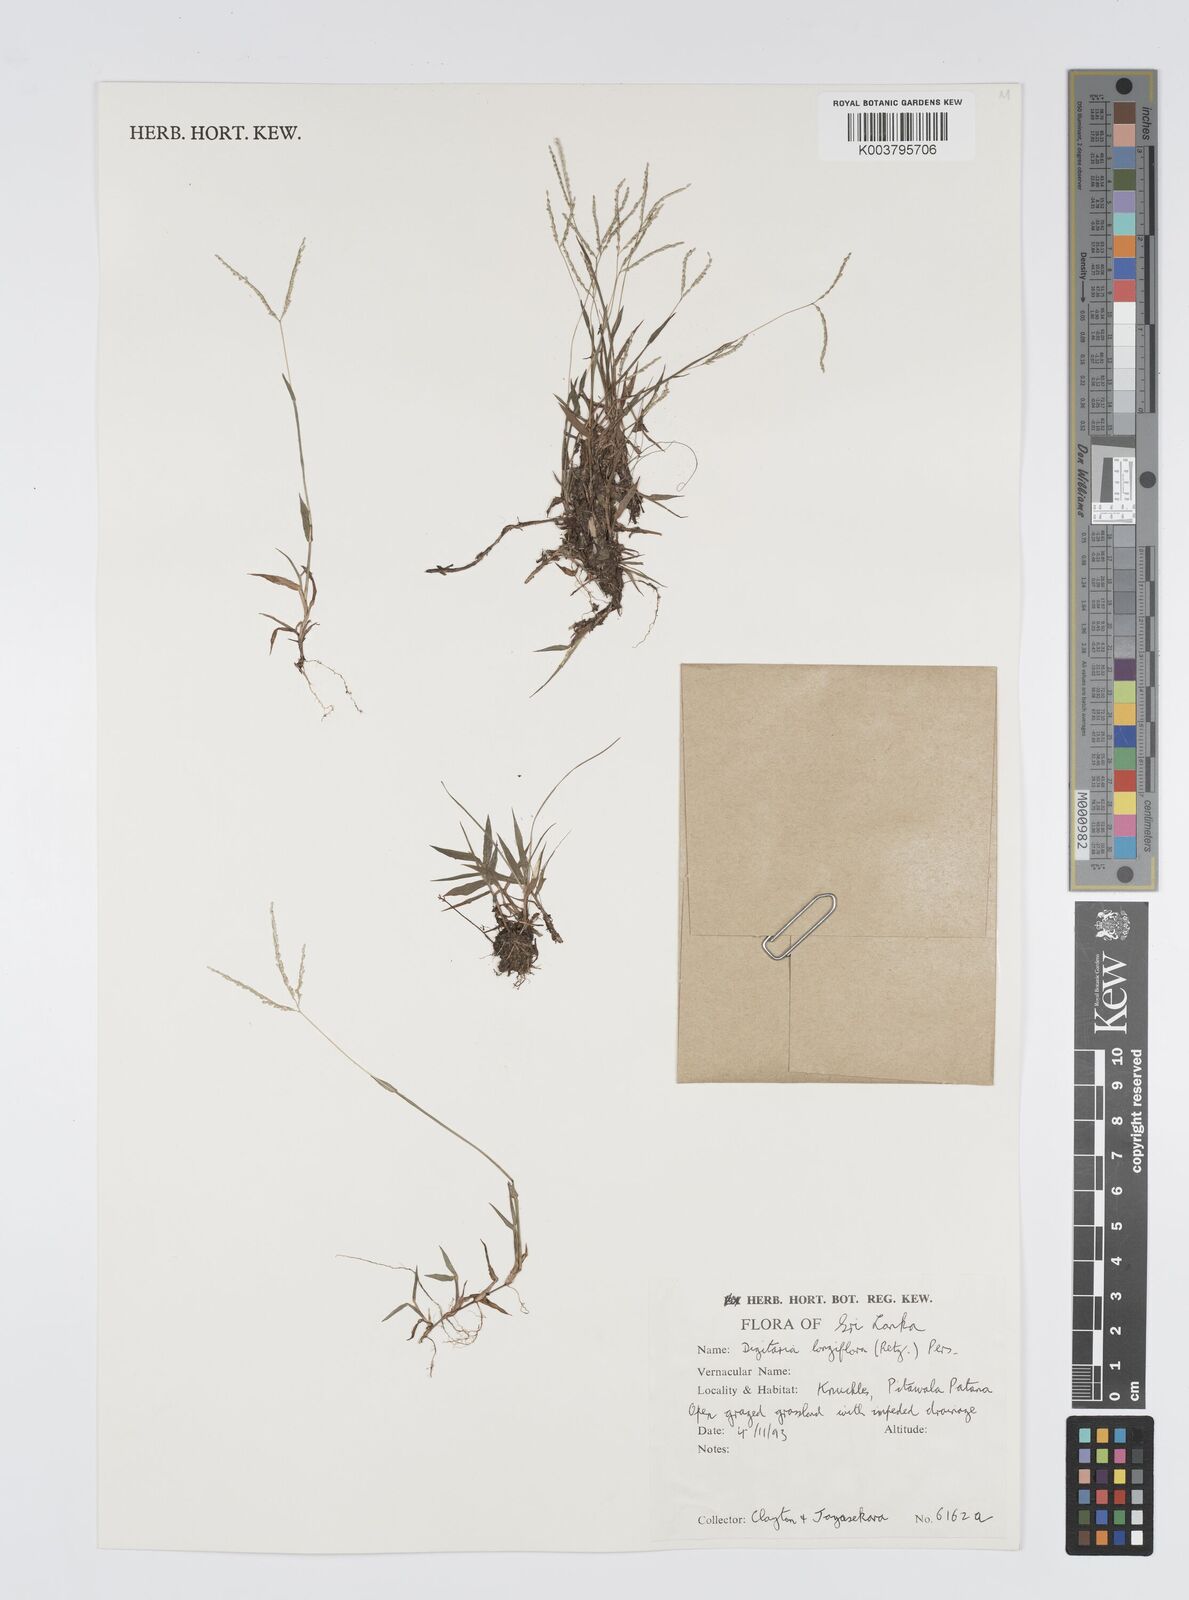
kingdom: Plantae
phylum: Tracheophyta
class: Liliopsida
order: Poales
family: Poaceae
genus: Digitaria
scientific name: Digitaria longiflora
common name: Wire crabgrass
